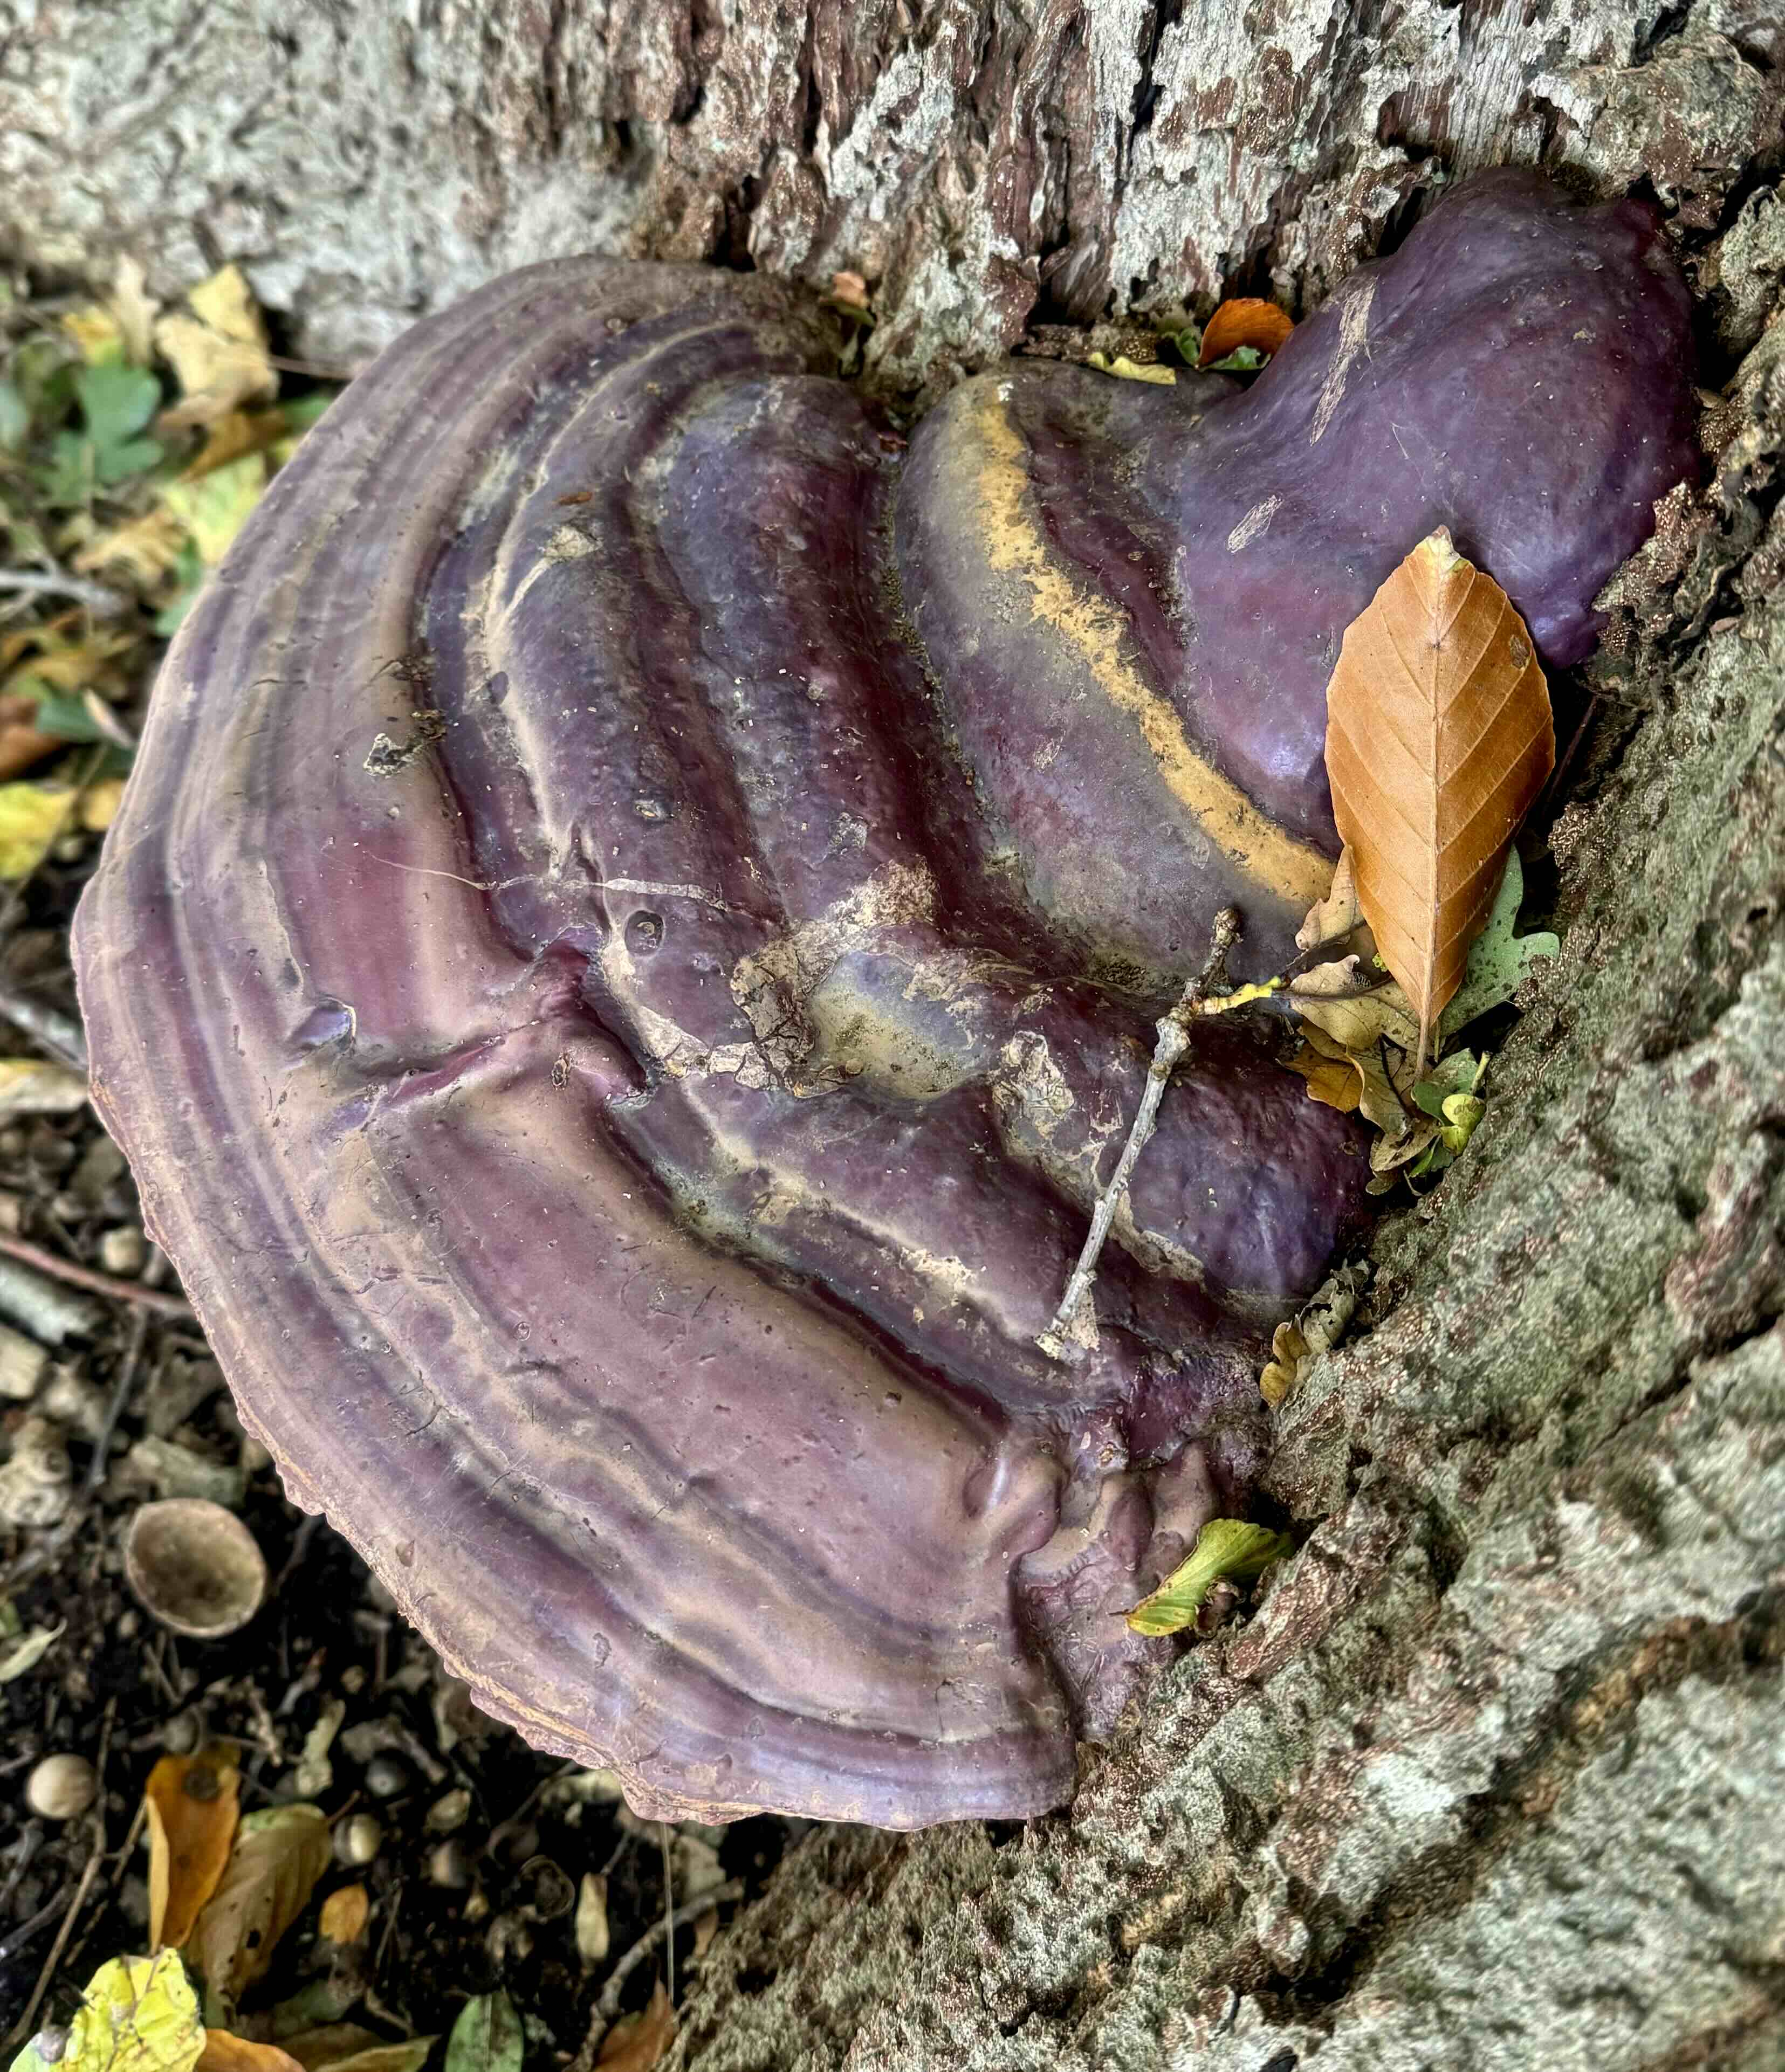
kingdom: Fungi
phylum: Basidiomycota
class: Agaricomycetes
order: Polyporales
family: Polyporaceae
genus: Ganoderma
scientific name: Ganoderma resinaceum
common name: gyldenbrun lakporesvamp
